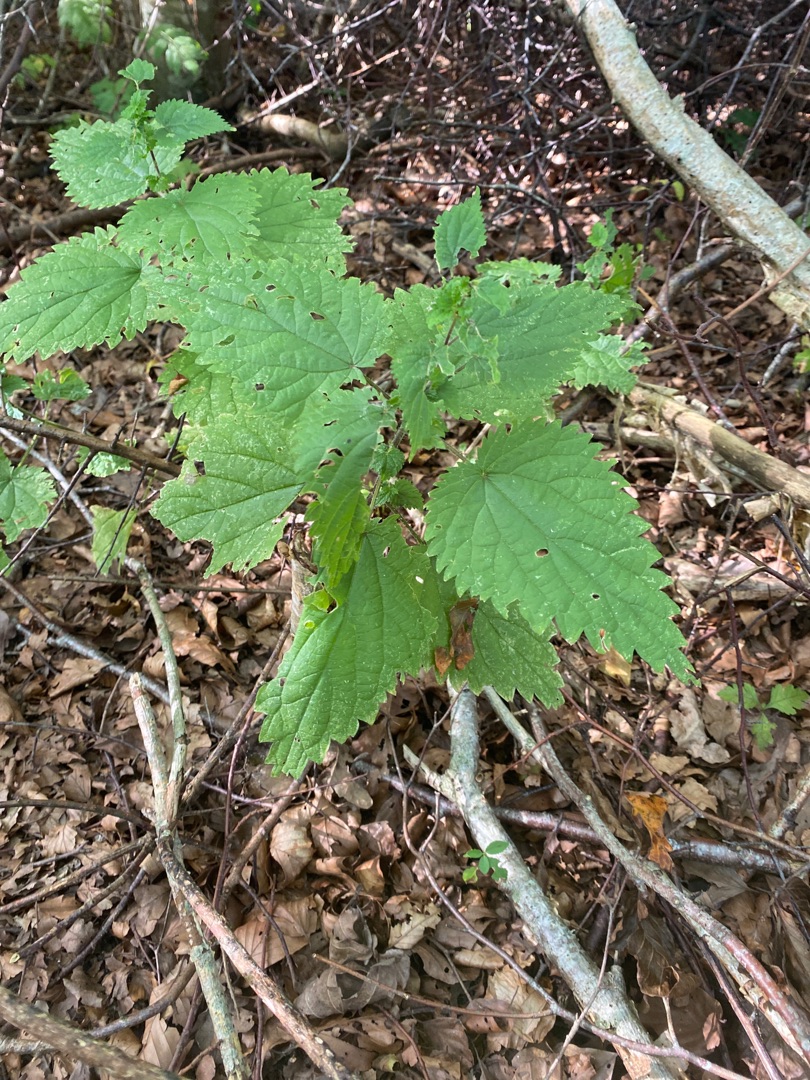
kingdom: Plantae
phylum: Tracheophyta
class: Magnoliopsida
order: Rosales
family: Urticaceae
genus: Urtica
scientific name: Urtica dioica
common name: Stor nælde
